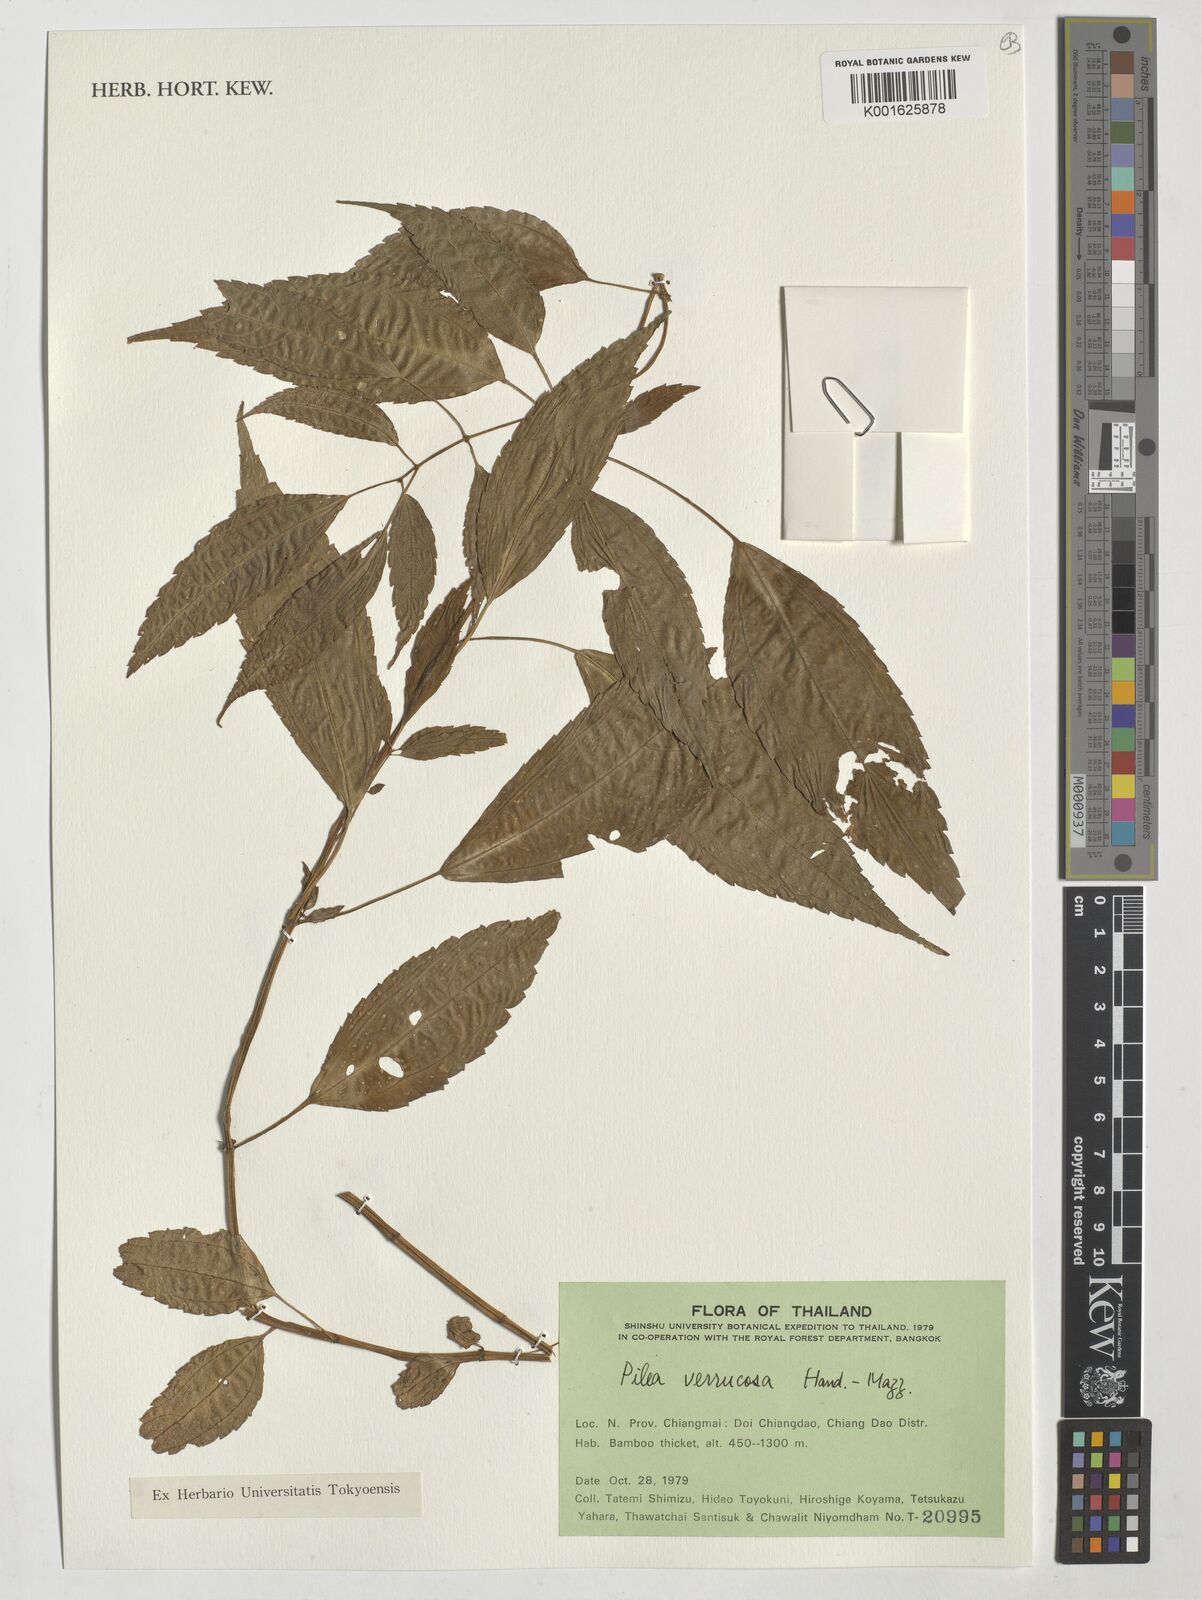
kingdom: Plantae
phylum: Tracheophyta
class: Magnoliopsida
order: Rosales
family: Urticaceae
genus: Pilea
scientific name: Pilea gracilis
